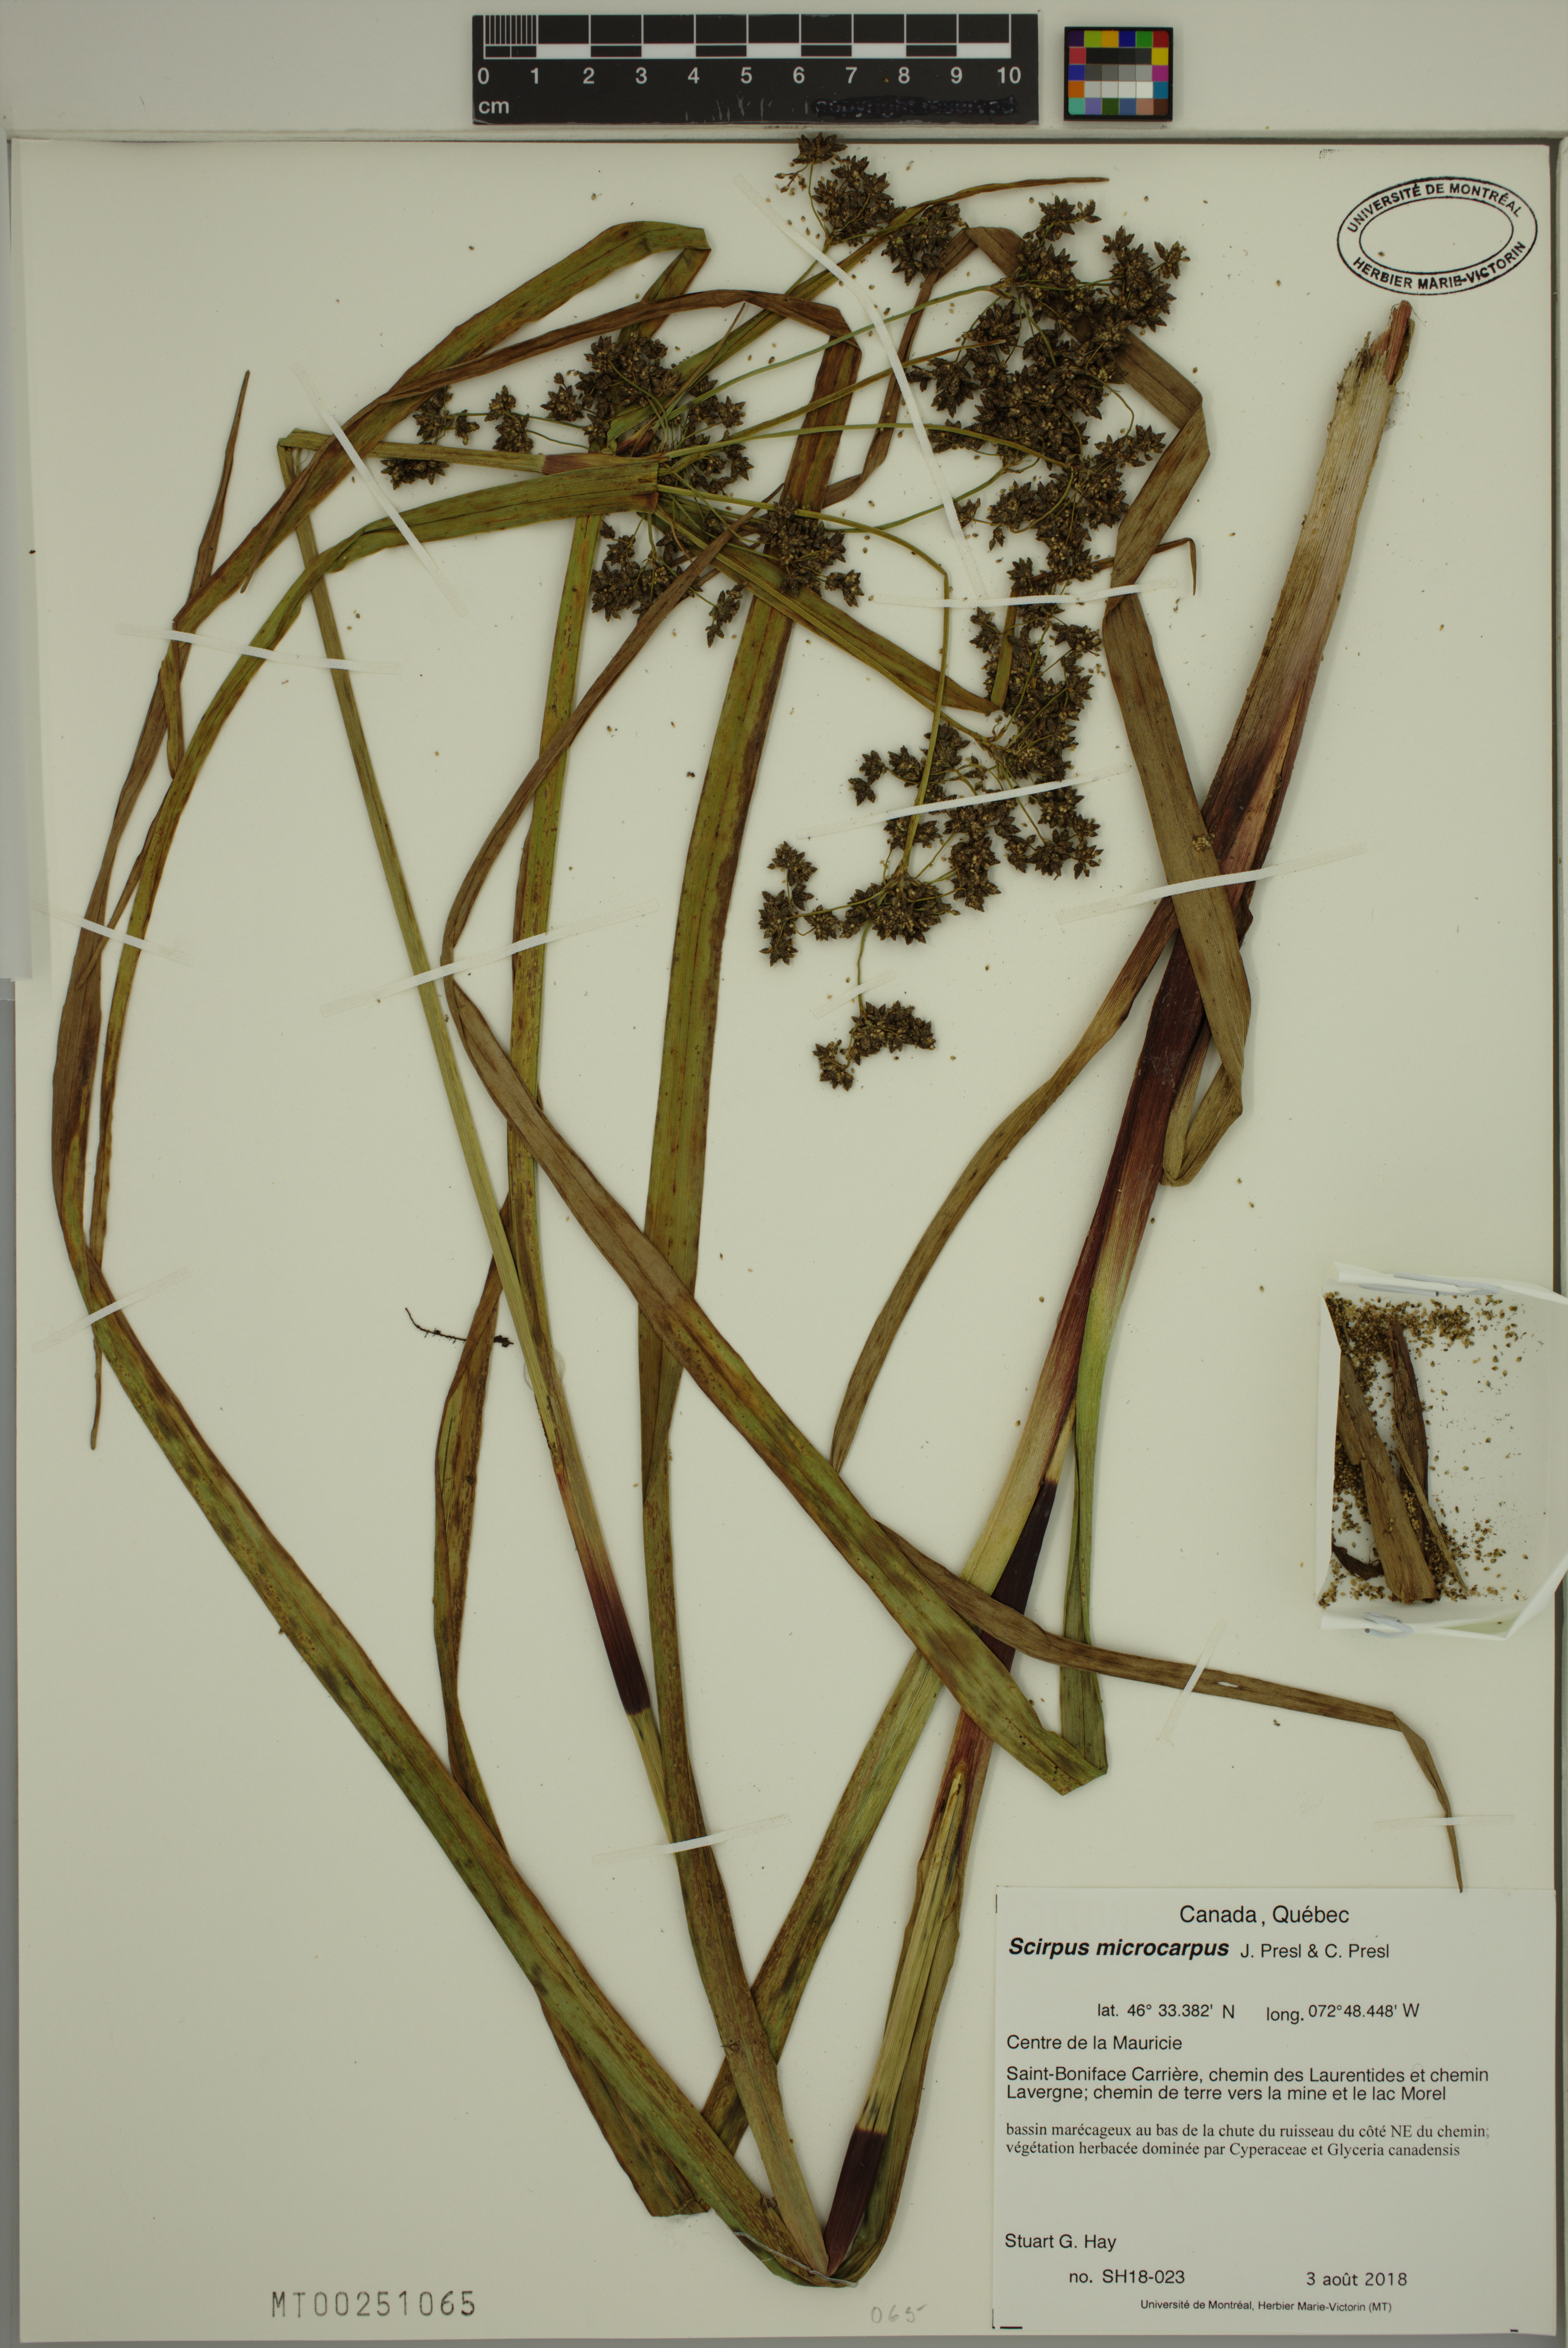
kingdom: Plantae
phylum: Tracheophyta
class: Liliopsida
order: Poales
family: Cyperaceae
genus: Scirpus
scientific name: Scirpus microcarpus
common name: Panicled bulrush
